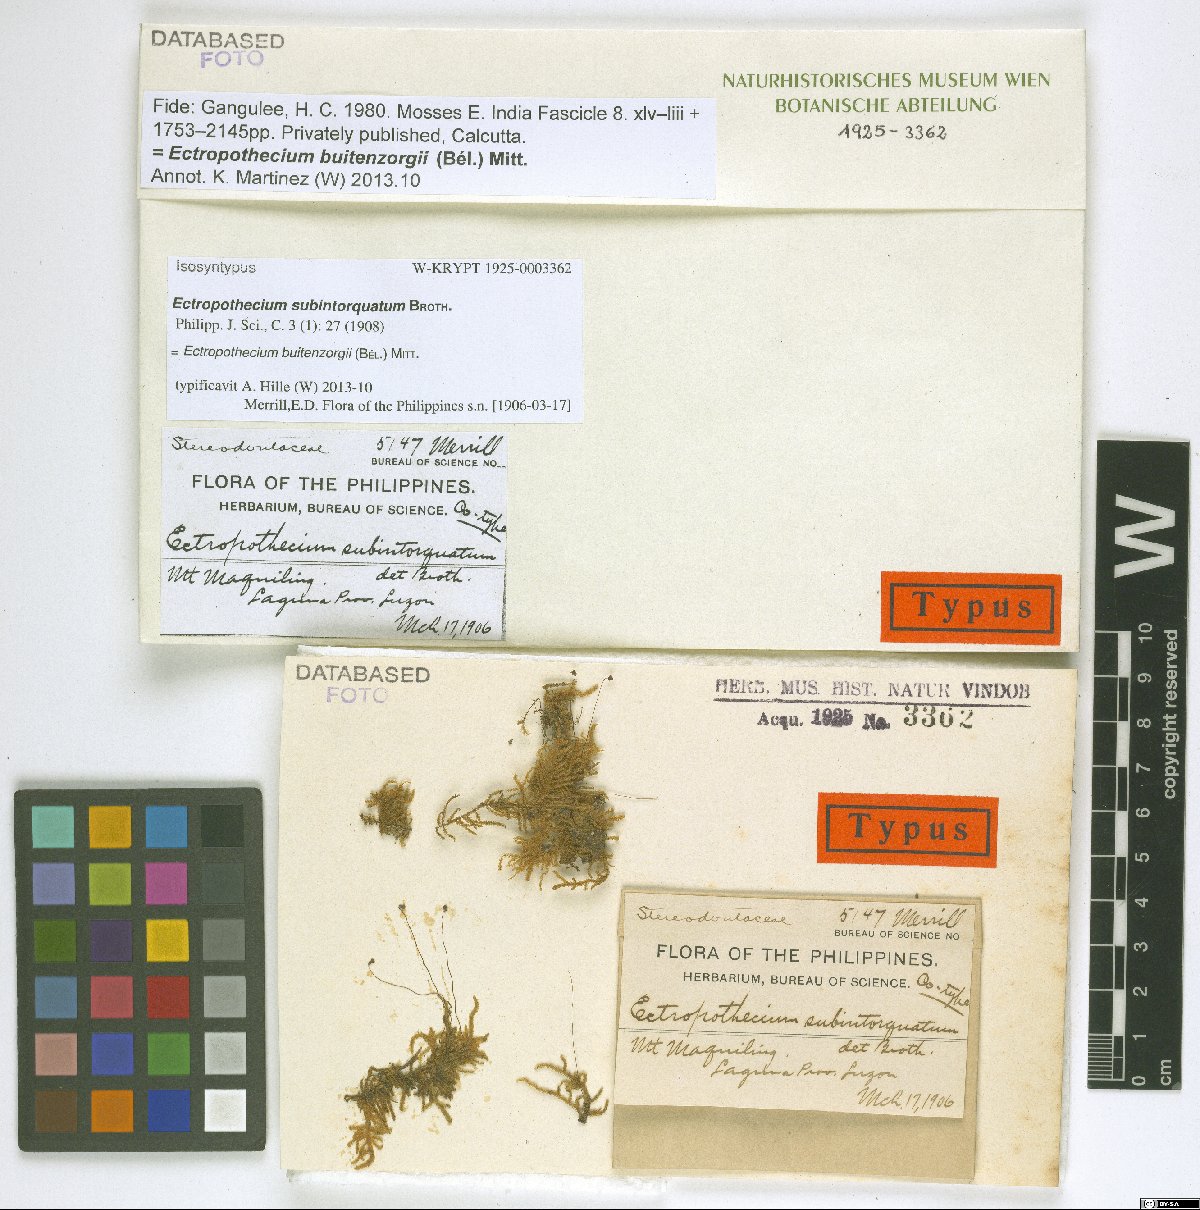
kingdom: Plantae
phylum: Bryophyta
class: Bryopsida
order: Hypnales
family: Hypnaceae
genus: Ectropothecium
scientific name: Ectropothecium buitenzorgi
